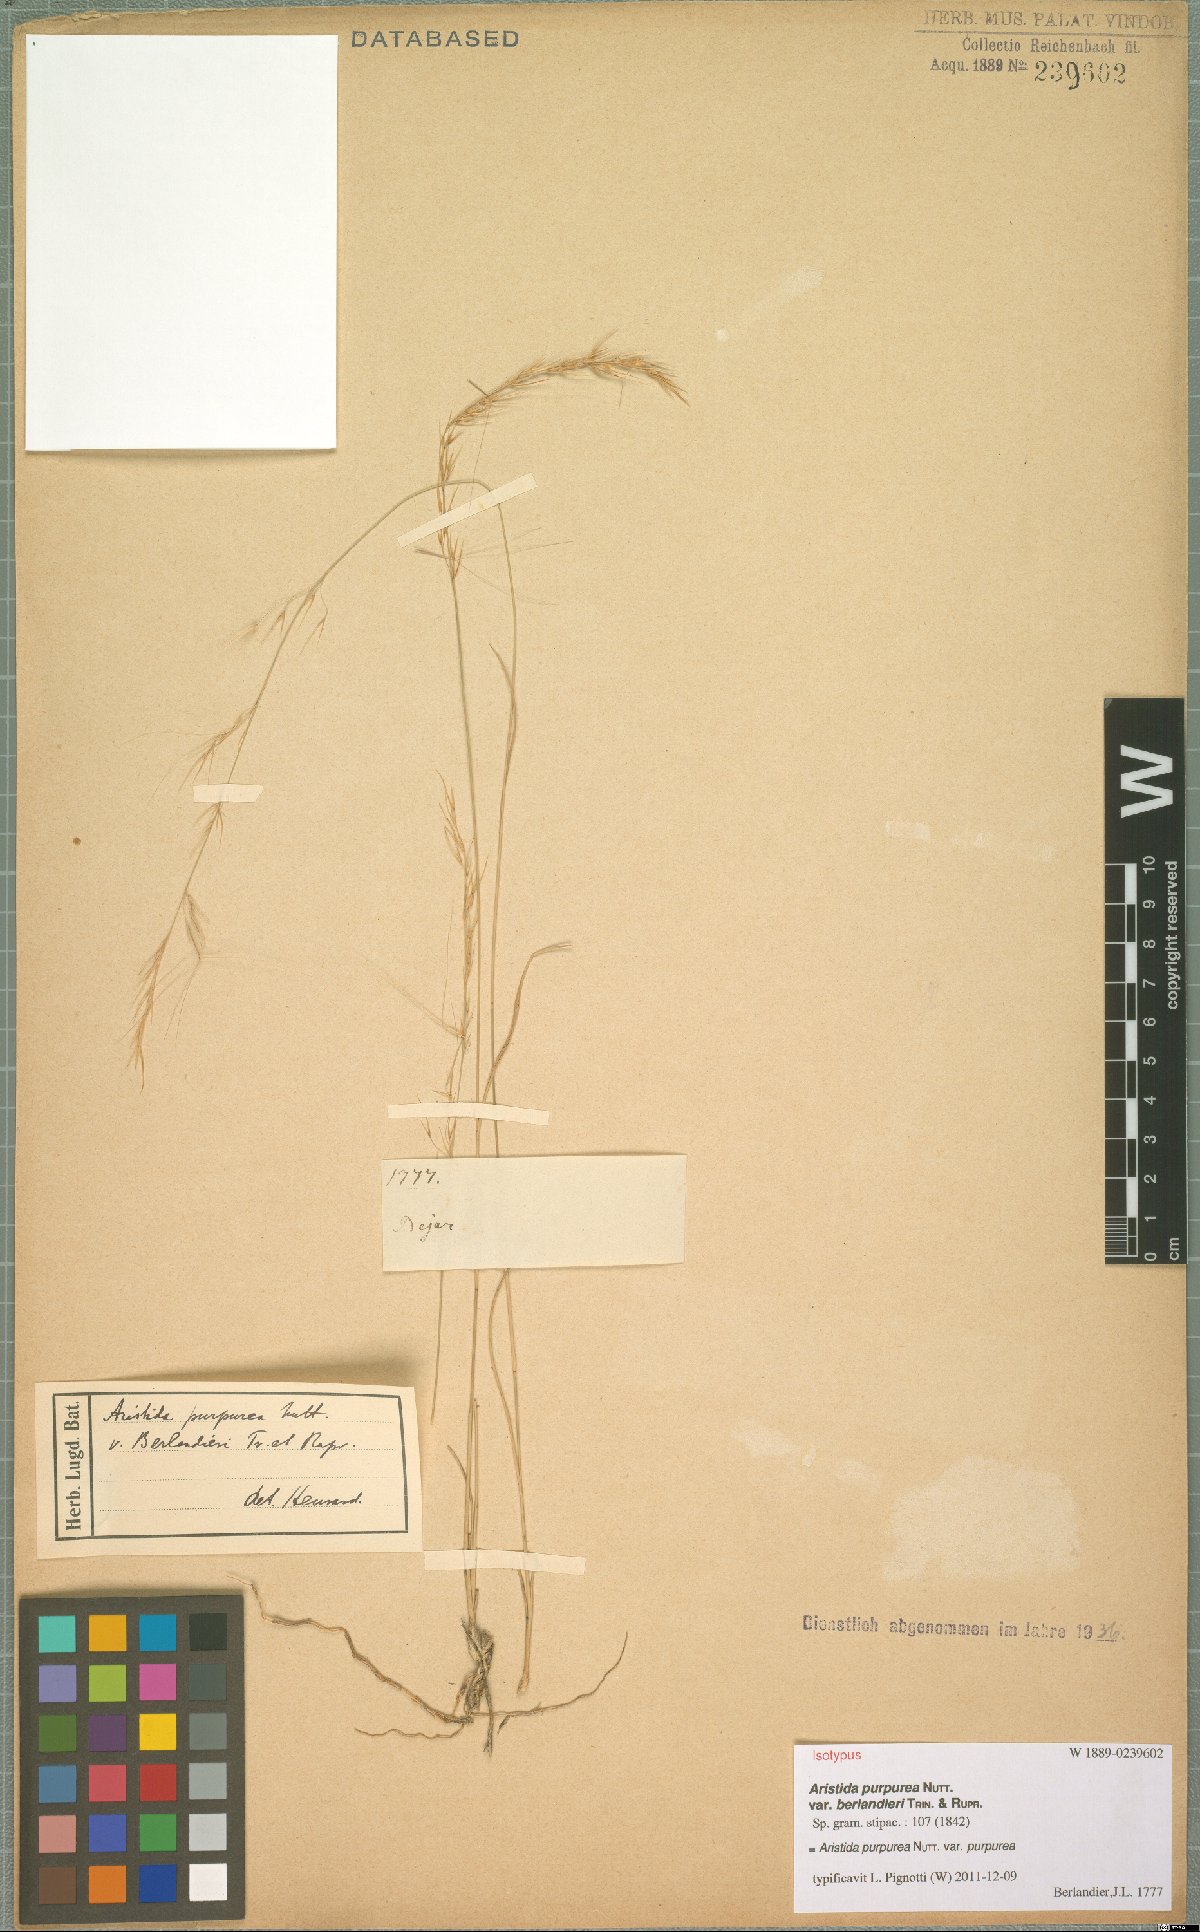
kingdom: Plantae
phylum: Tracheophyta
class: Liliopsida
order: Poales
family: Poaceae
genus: Aristida
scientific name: Aristida purpurea
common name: Purple threeawn
